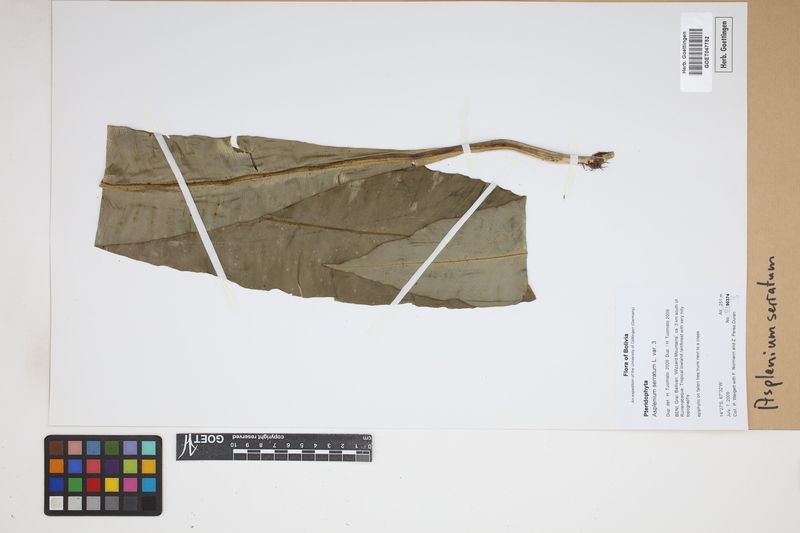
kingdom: Plantae
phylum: Tracheophyta
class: Polypodiopsida
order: Polypodiales
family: Aspleniaceae
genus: Asplenium
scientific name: Asplenium serratum
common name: Wild birdnest fern
